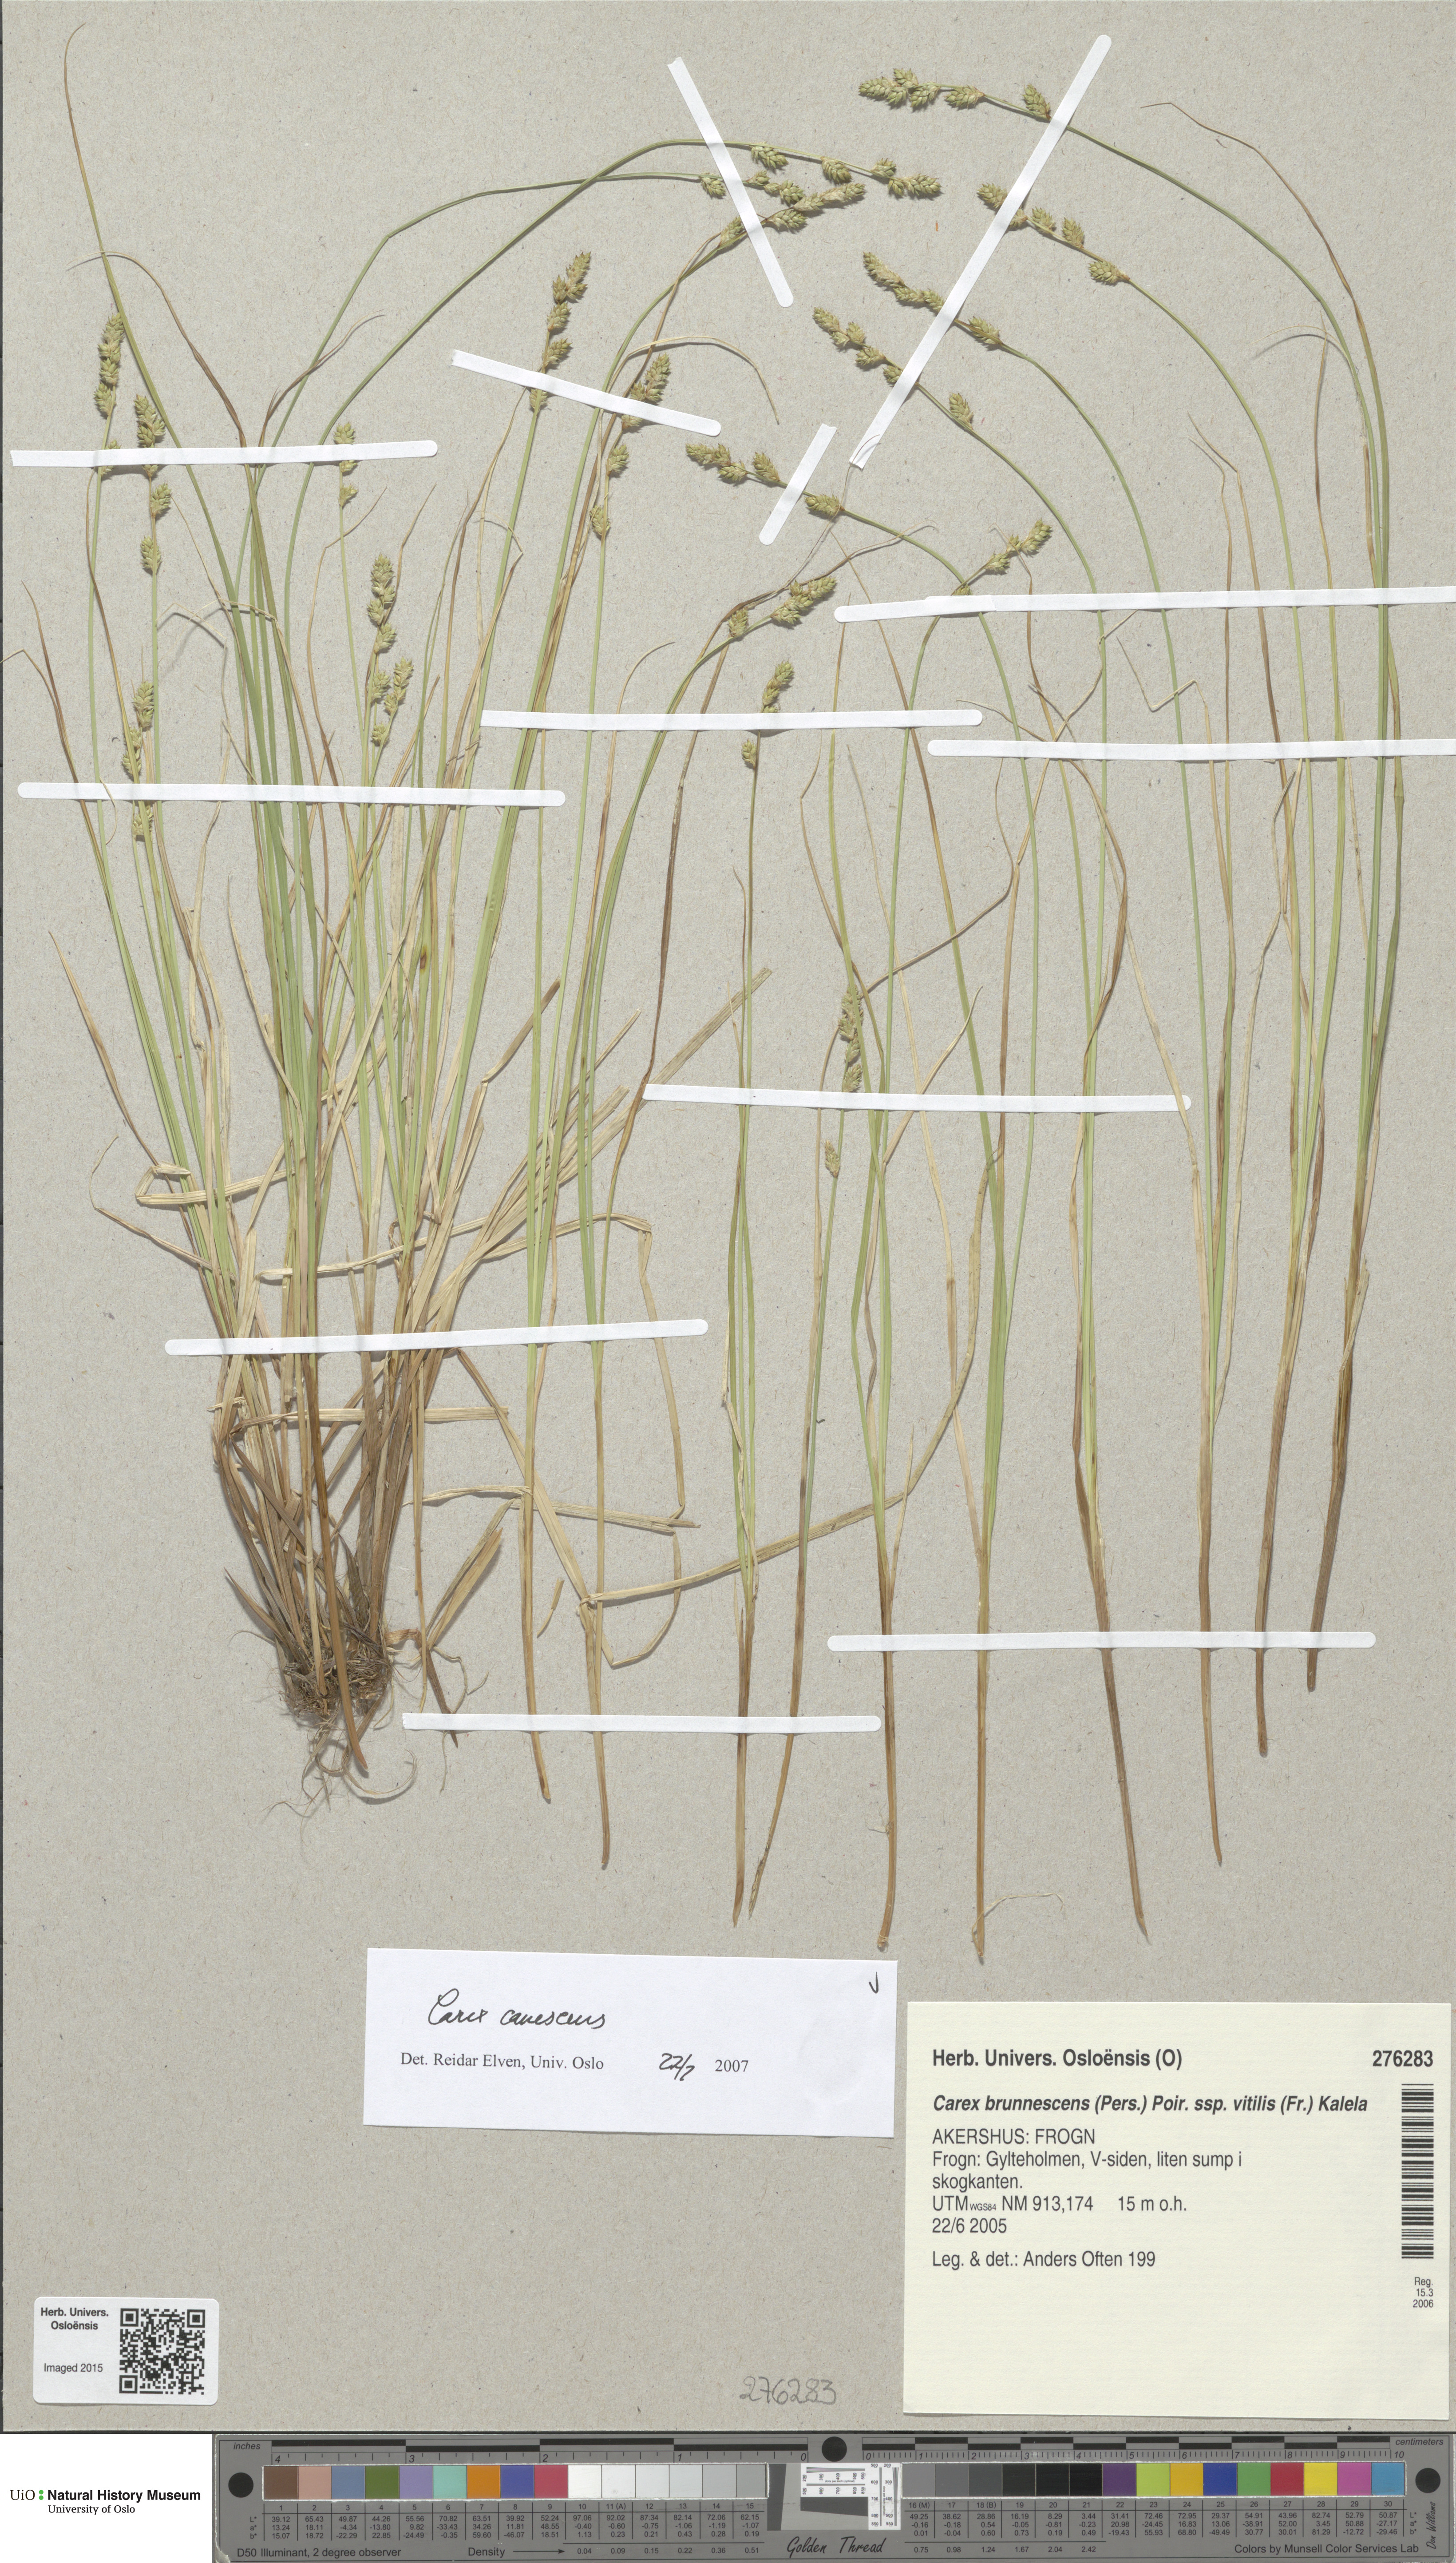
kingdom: Plantae
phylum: Tracheophyta
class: Liliopsida
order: Poales
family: Cyperaceae
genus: Carex
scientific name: Carex canescens
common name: White sedge
